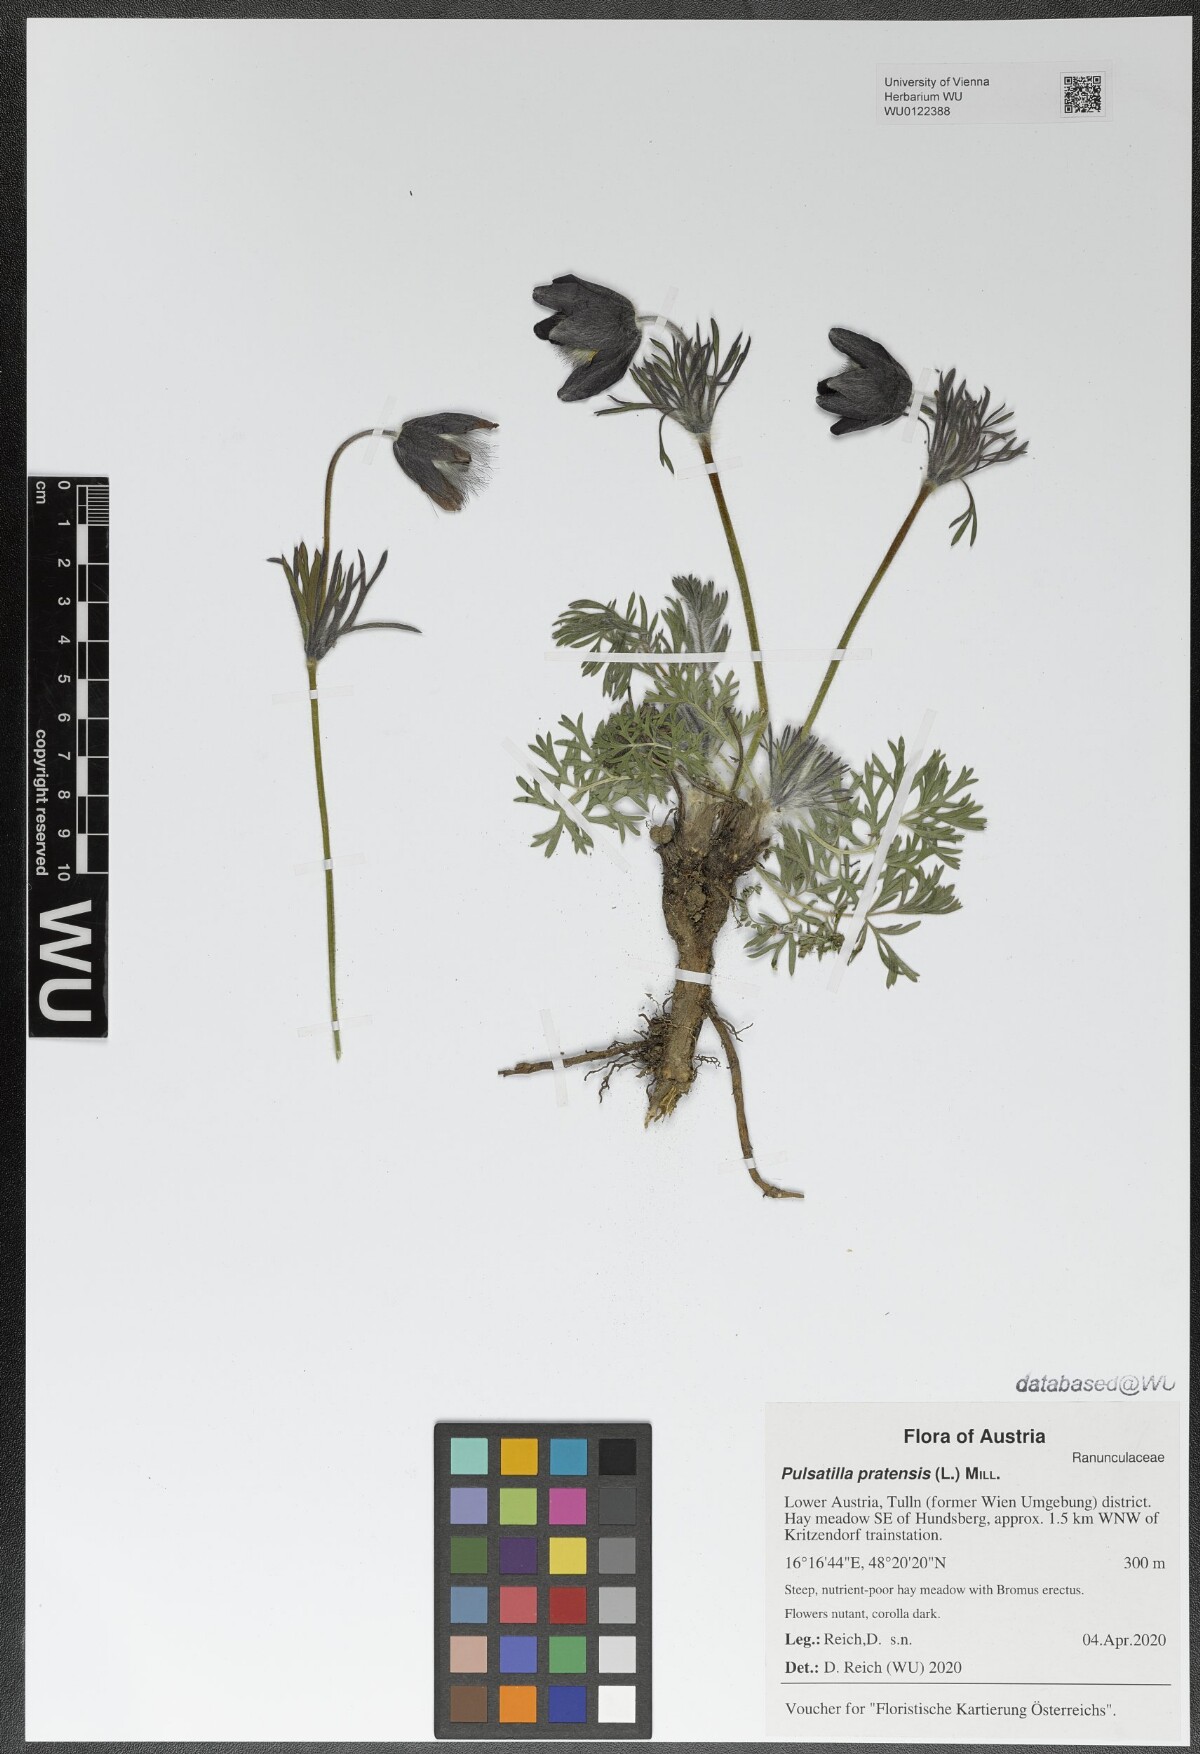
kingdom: Plantae
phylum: Tracheophyta
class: Magnoliopsida
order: Ranunculales
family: Ranunculaceae
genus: Pulsatilla
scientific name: Pulsatilla pratensis
